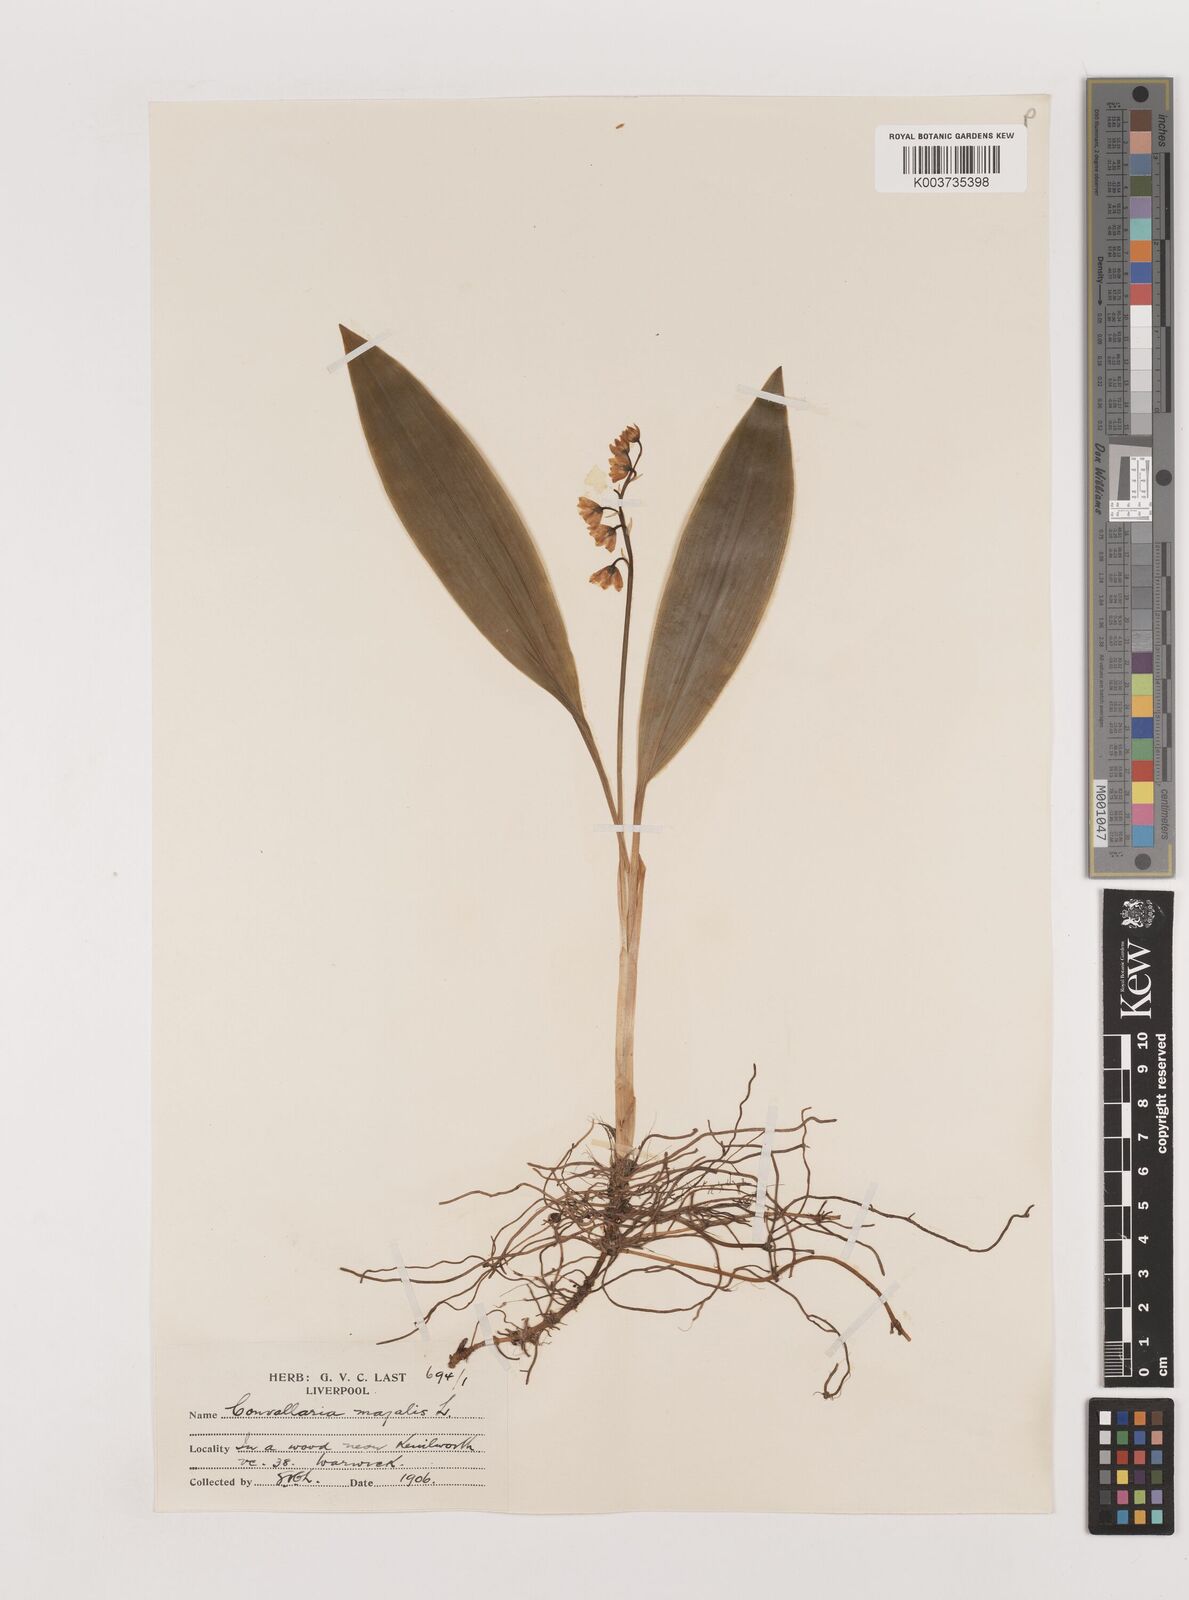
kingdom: Plantae
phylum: Tracheophyta
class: Liliopsida
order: Asparagales
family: Asparagaceae
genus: Convallaria
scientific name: Convallaria majalis
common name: Lily-of-the-valley
